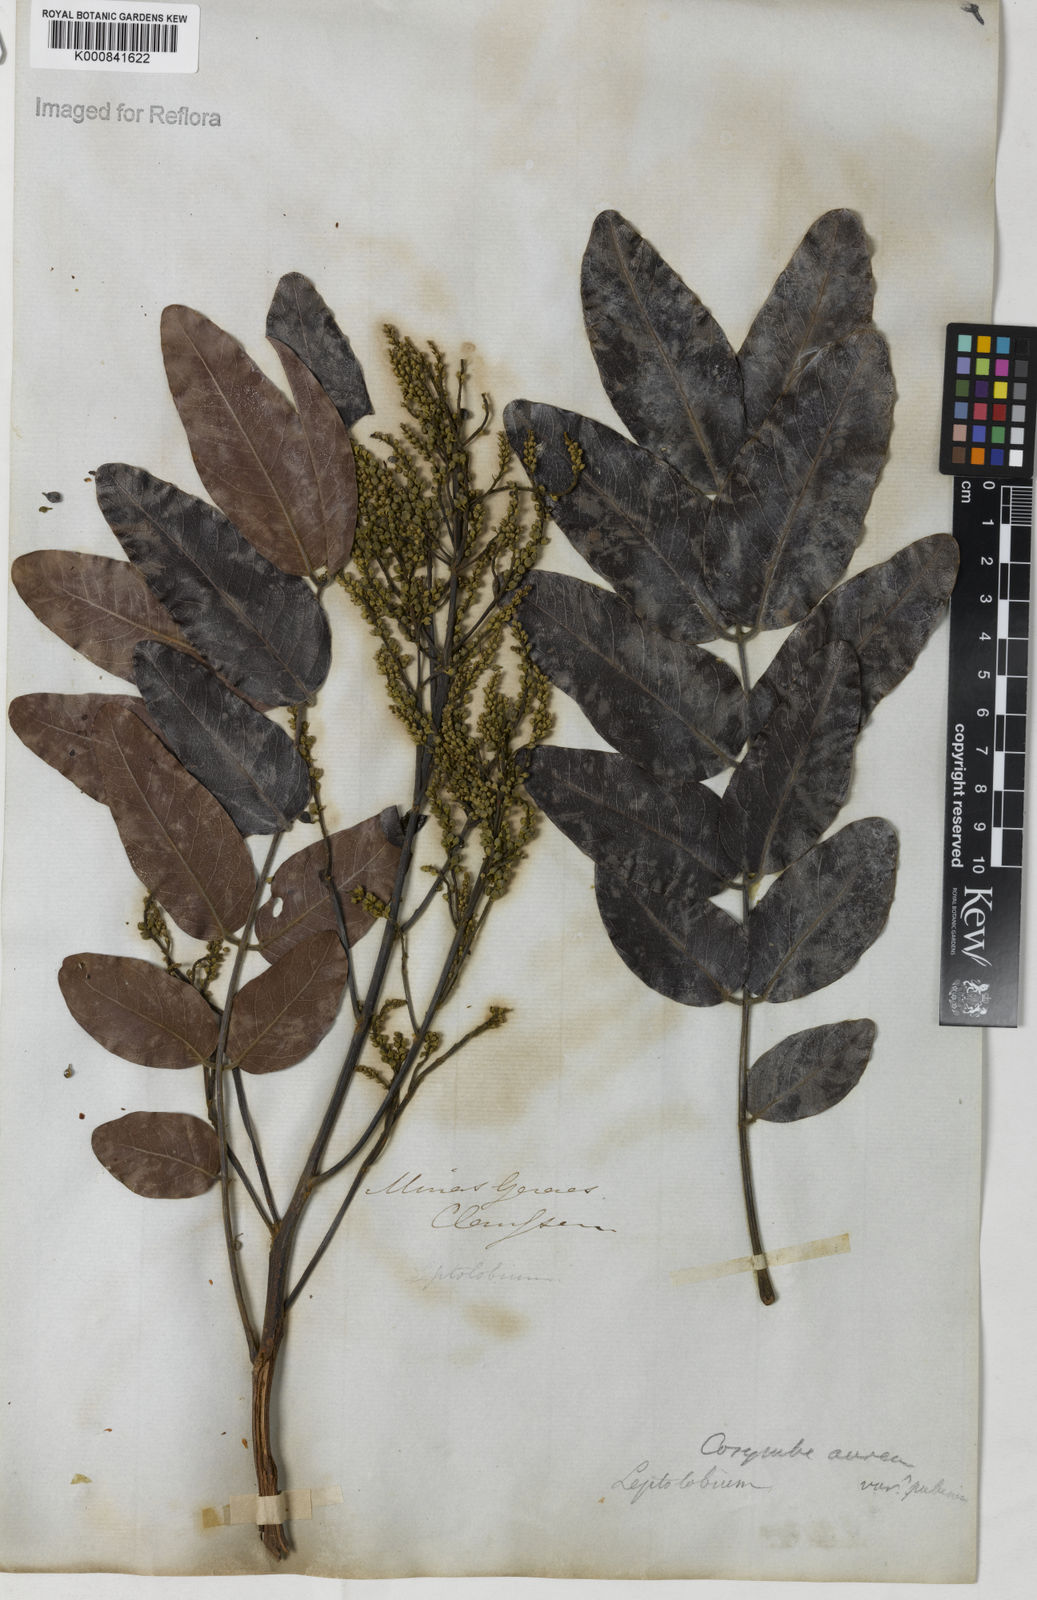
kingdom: Plantae
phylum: Tracheophyta
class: Magnoliopsida
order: Fabales
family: Fabaceae
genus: Tachigali
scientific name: Tachigali aurea
